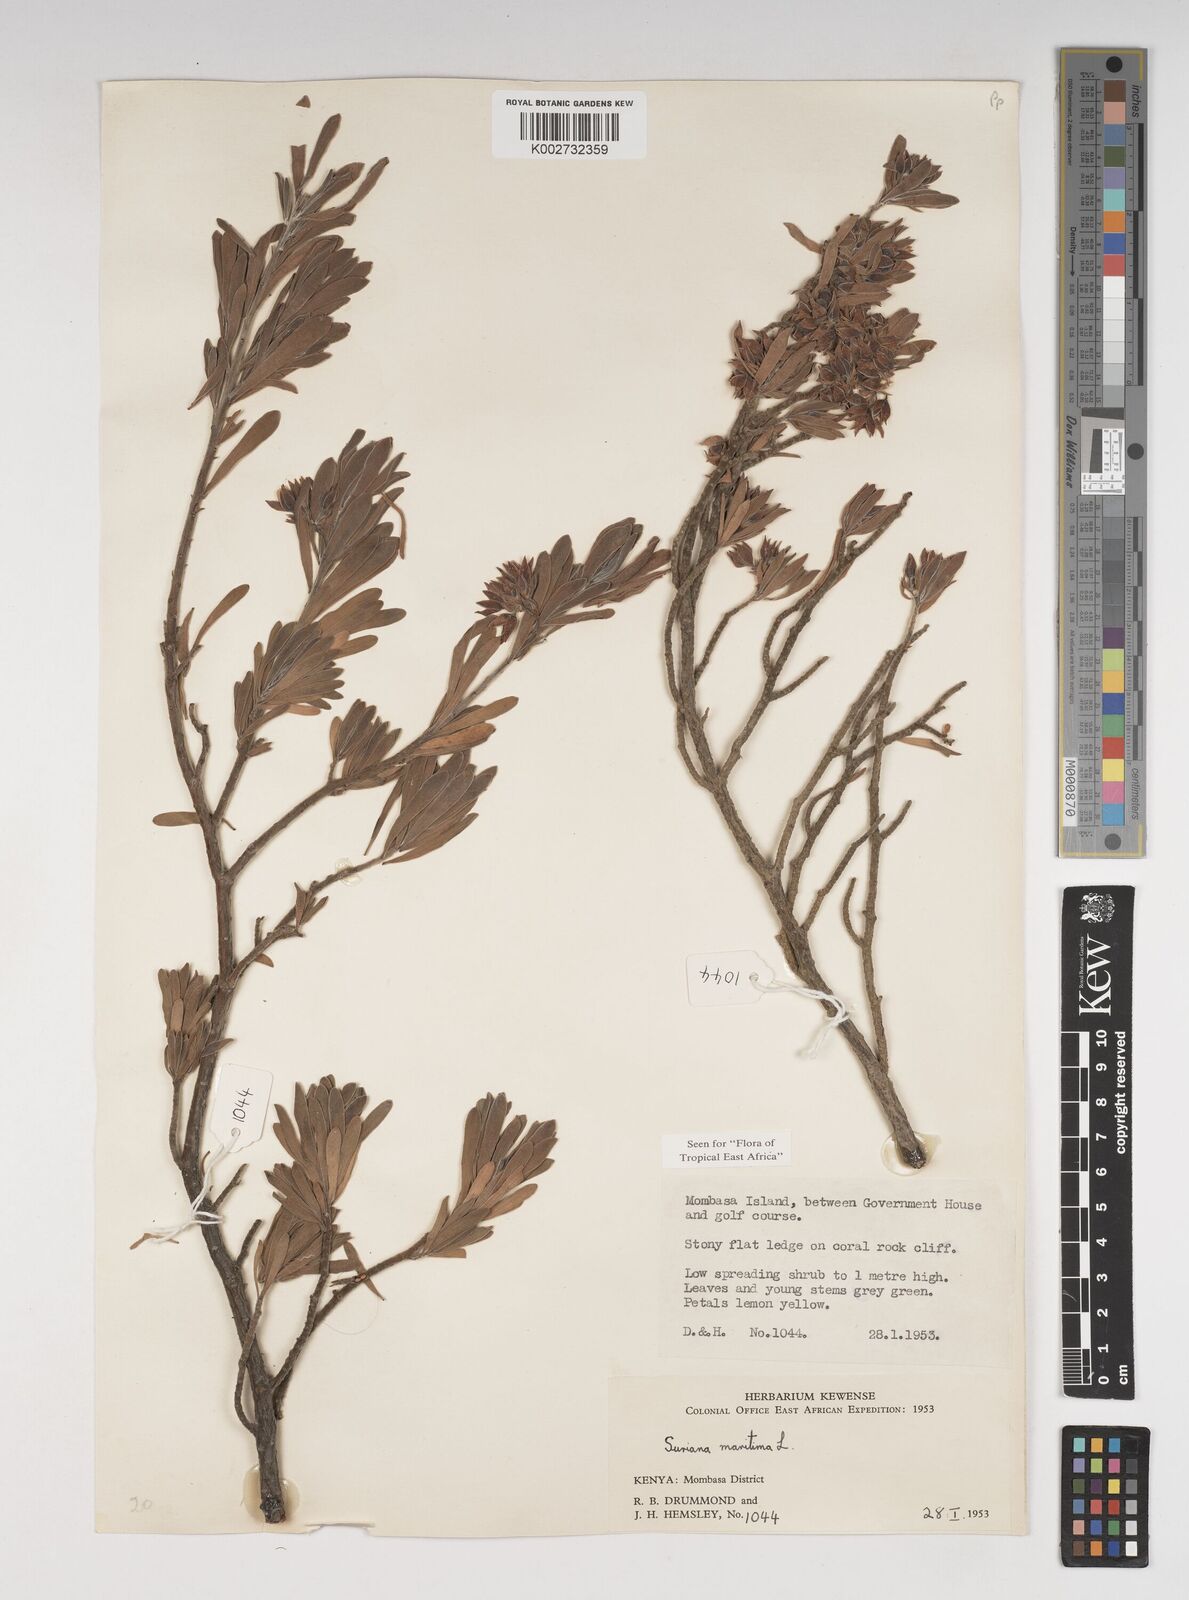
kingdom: Plantae
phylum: Tracheophyta
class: Magnoliopsida
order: Fabales
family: Surianaceae
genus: Suriana
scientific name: Suriana maritima
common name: Bay-cedar
